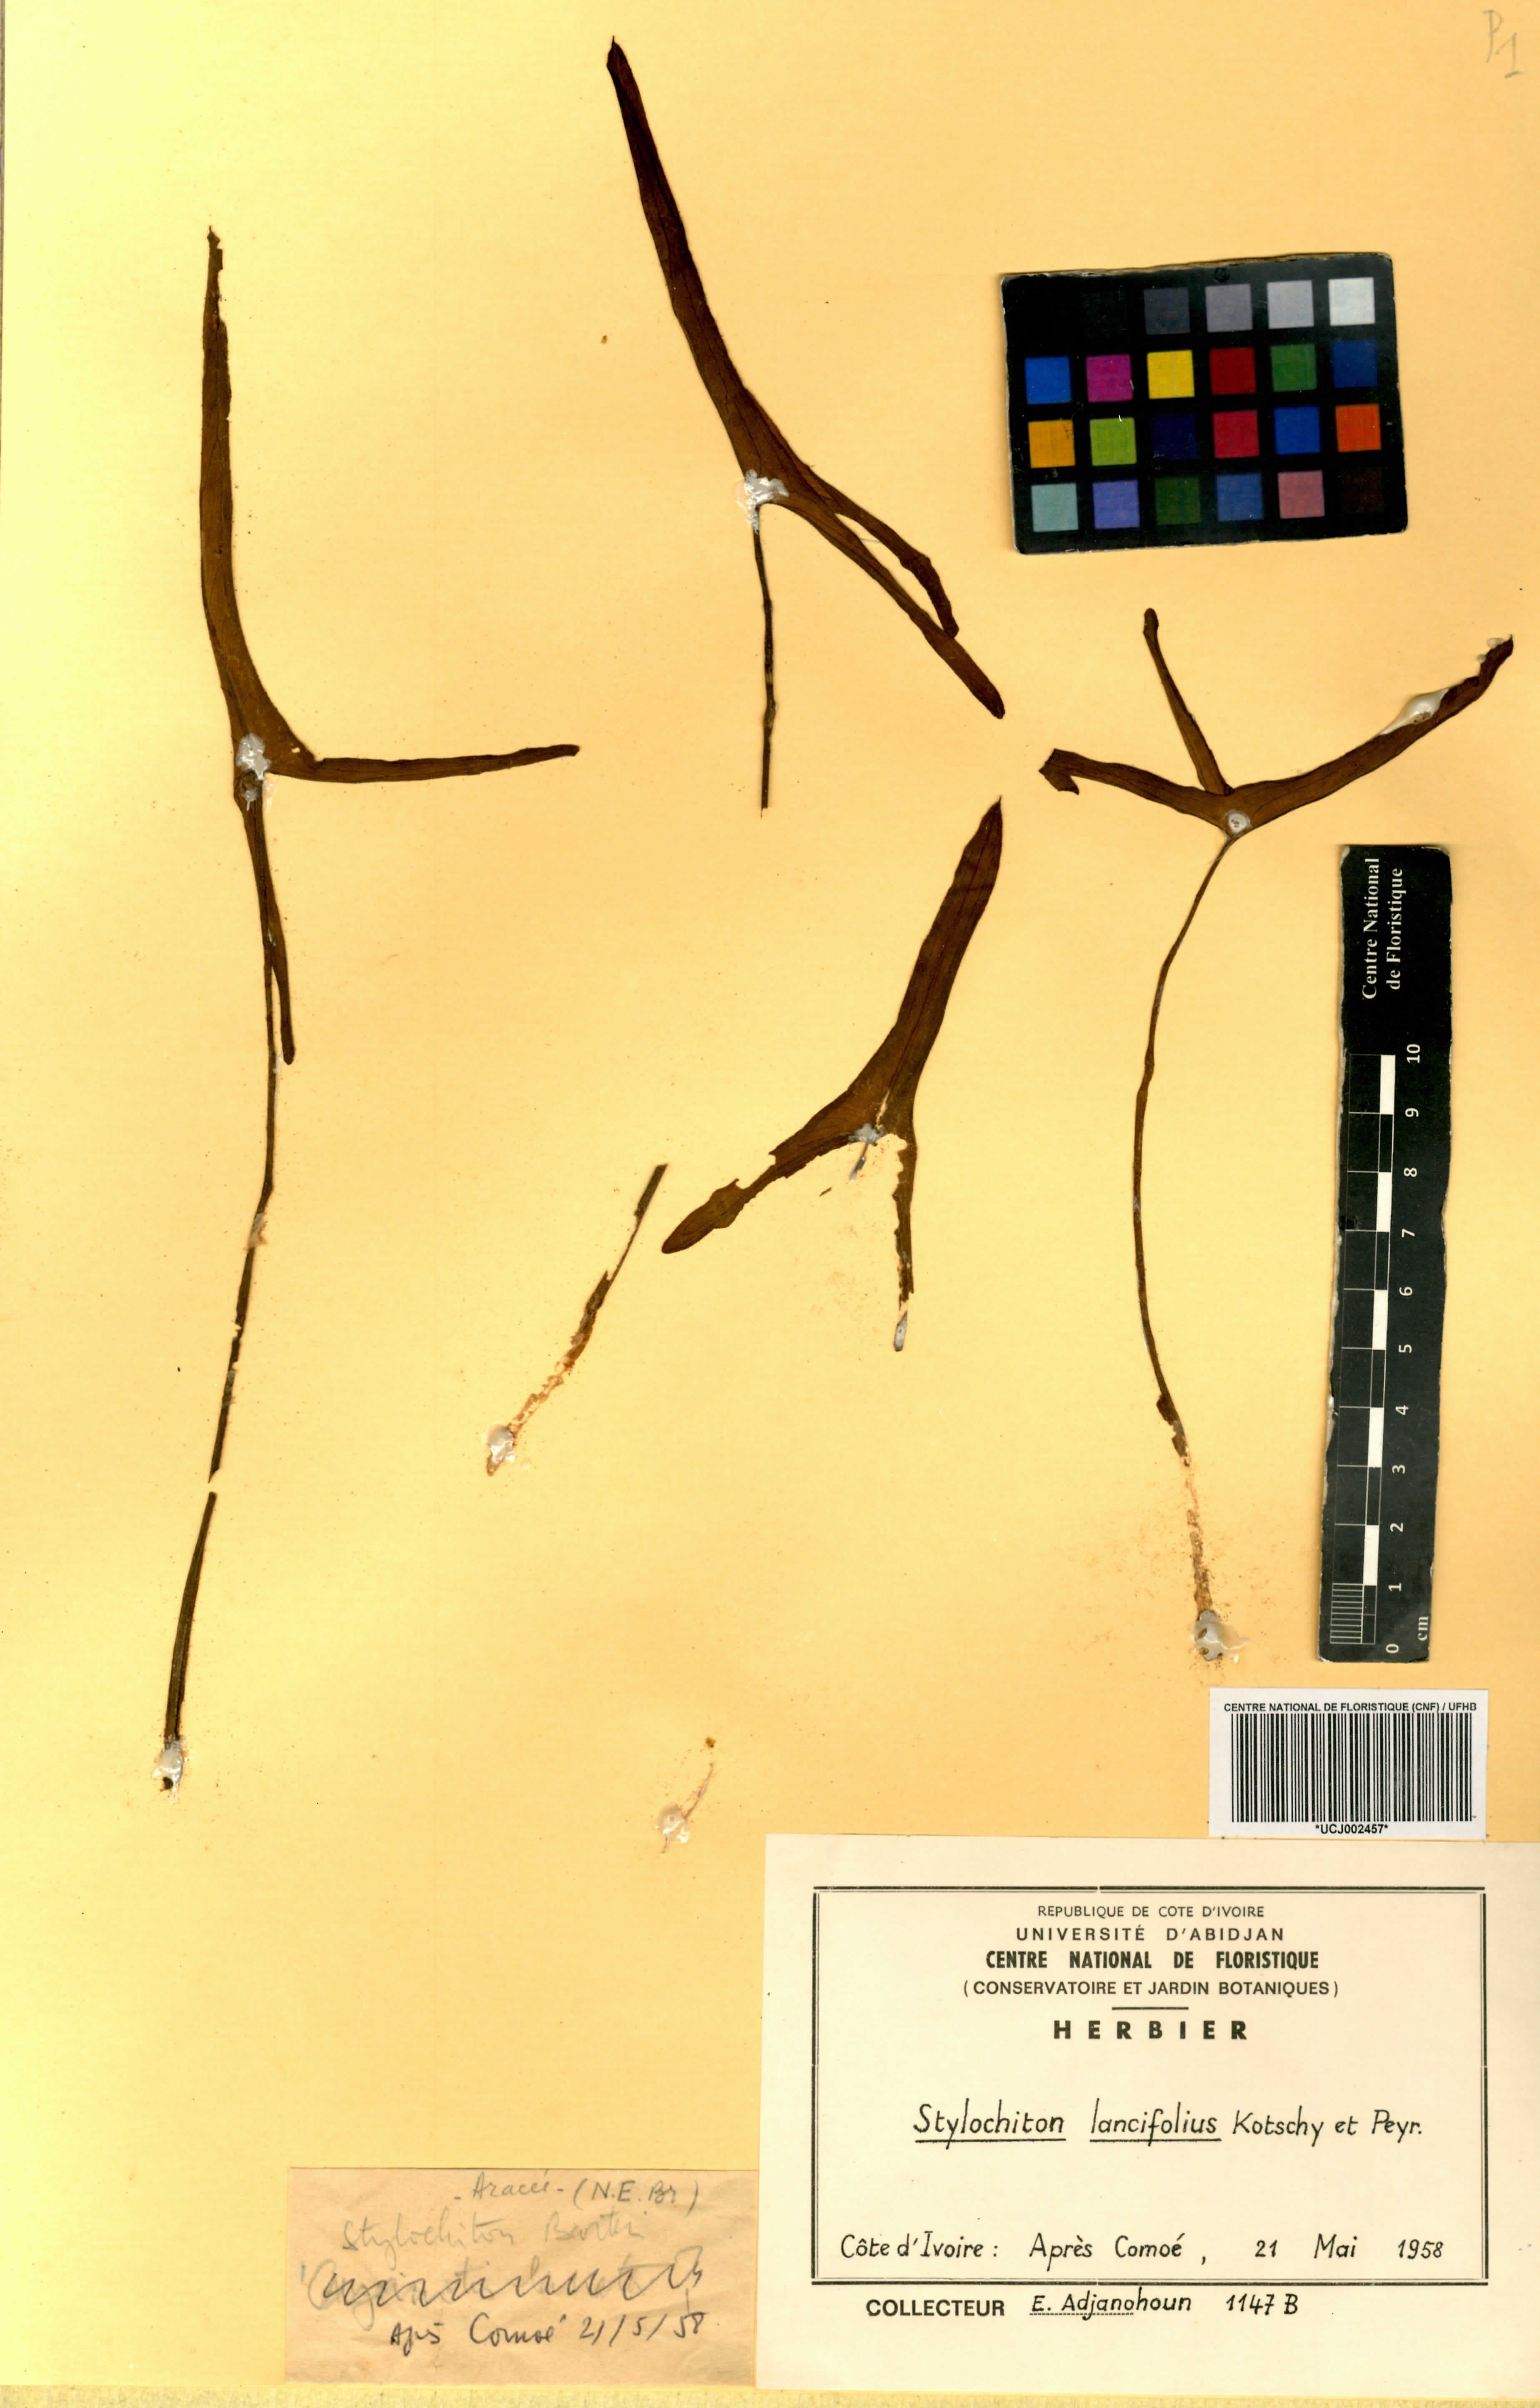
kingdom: Plantae
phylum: Tracheophyta
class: Liliopsida
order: Alismatales
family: Araceae
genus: Stylochaeton
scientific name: Stylochaeton lancifolium
